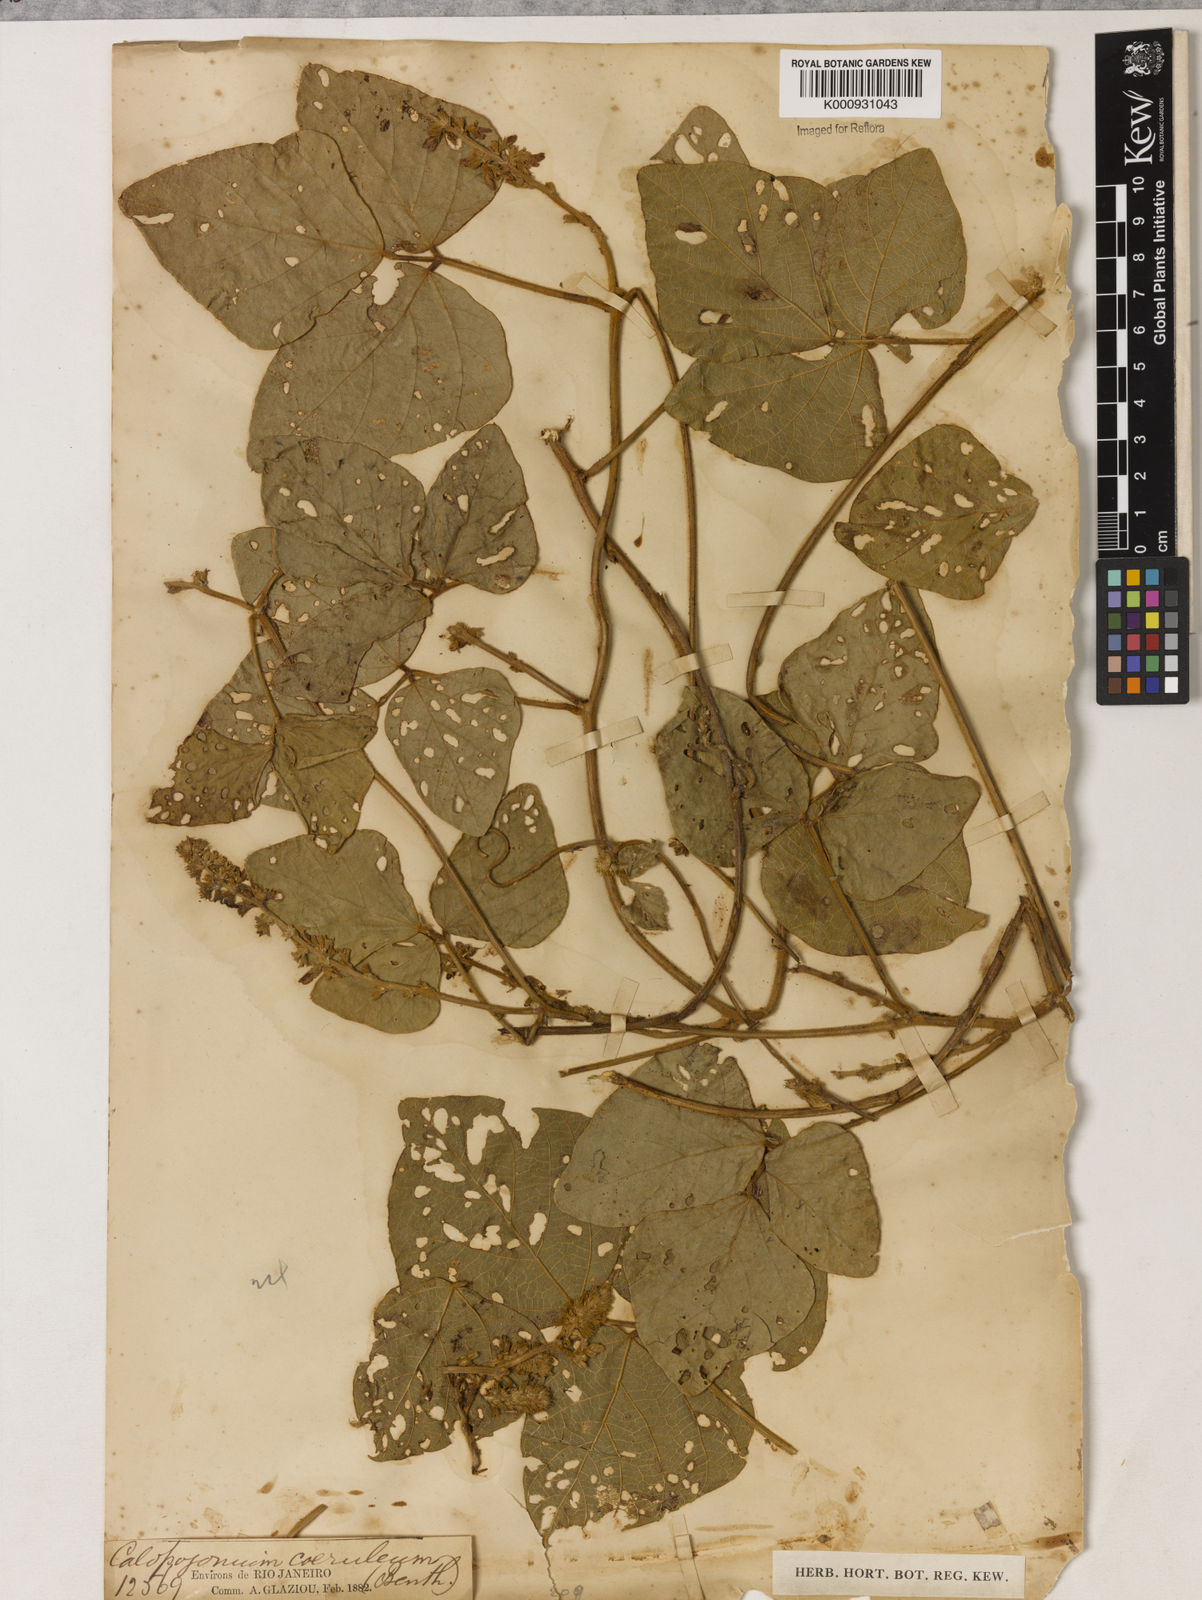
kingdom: Plantae
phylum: Tracheophyta
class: Magnoliopsida
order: Fabales
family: Fabaceae
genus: Calopogonium
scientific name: Calopogonium caeruleum
